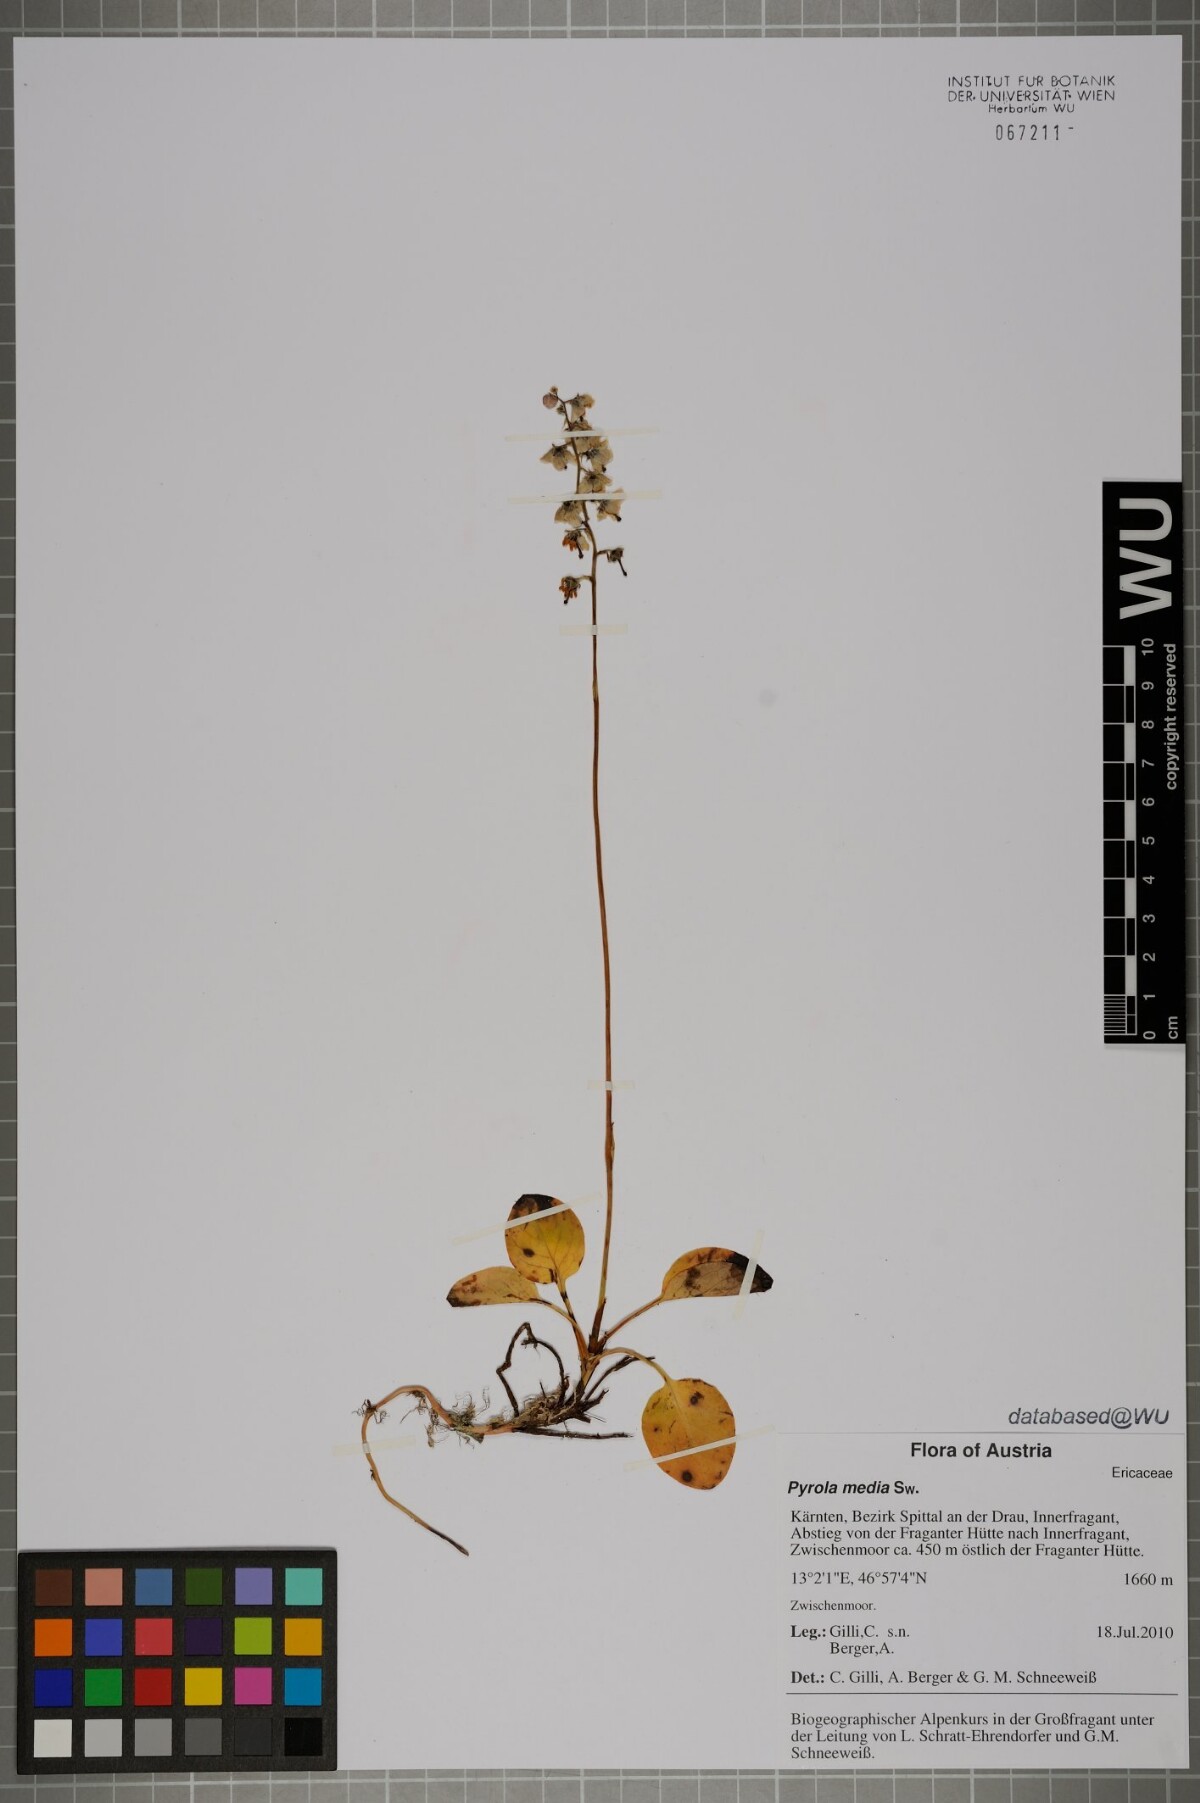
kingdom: Plantae
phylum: Tracheophyta
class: Magnoliopsida
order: Ericales
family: Ericaceae
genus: Pyrola
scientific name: Pyrola media
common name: Intermediate wintergreen
